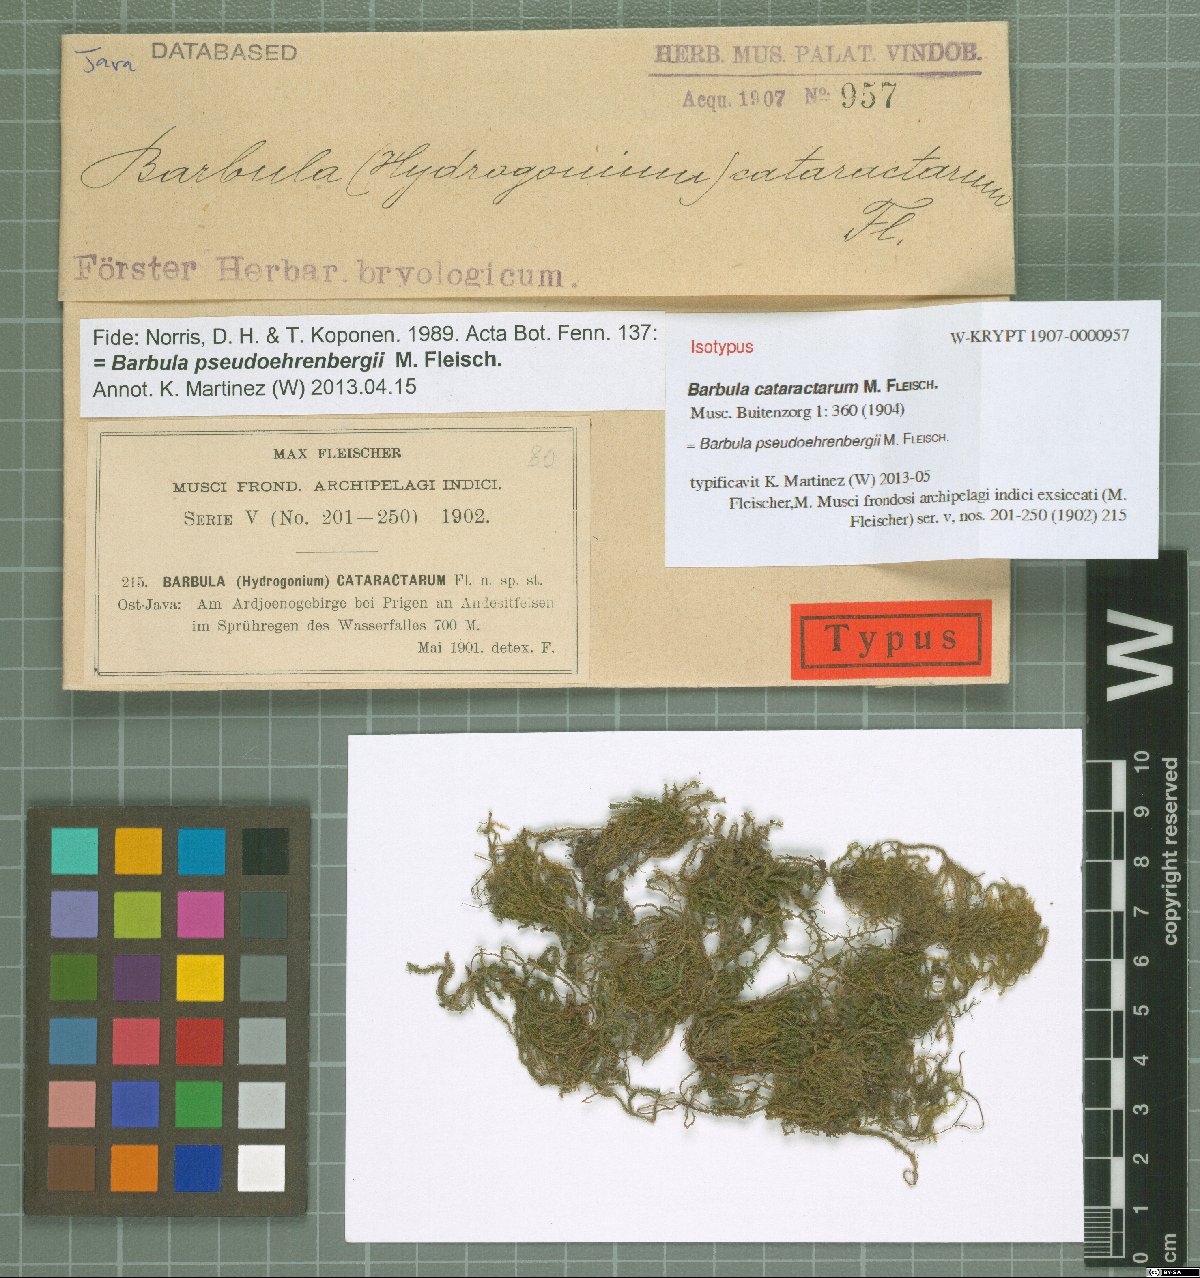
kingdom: Plantae
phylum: Bryophyta
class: Bryopsida
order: Pottiales
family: Pottiaceae
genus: Hydrogonium
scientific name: Hydrogonium pseudoehrenbergii
